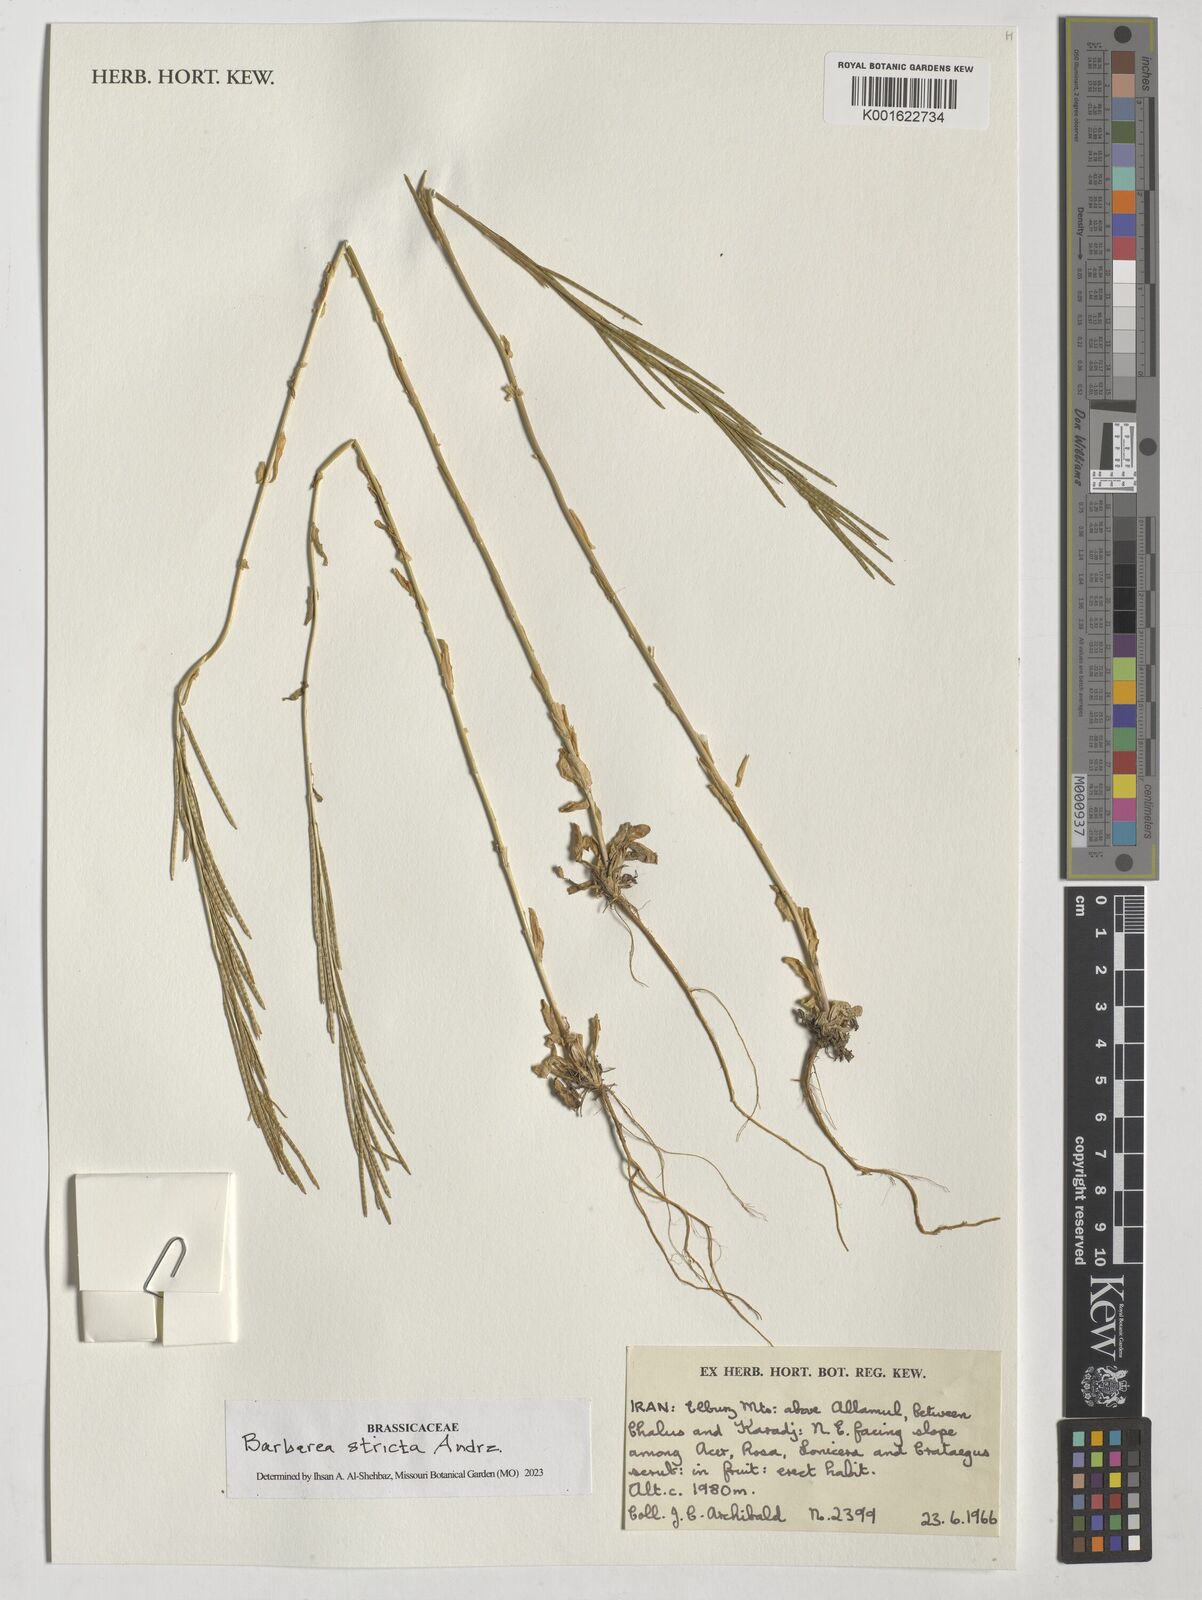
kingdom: Plantae
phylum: Tracheophyta
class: Magnoliopsida
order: Brassicales
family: Brassicaceae
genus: Barbarea
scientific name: Barbarea stricta
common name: Small-flowered winter-cress
